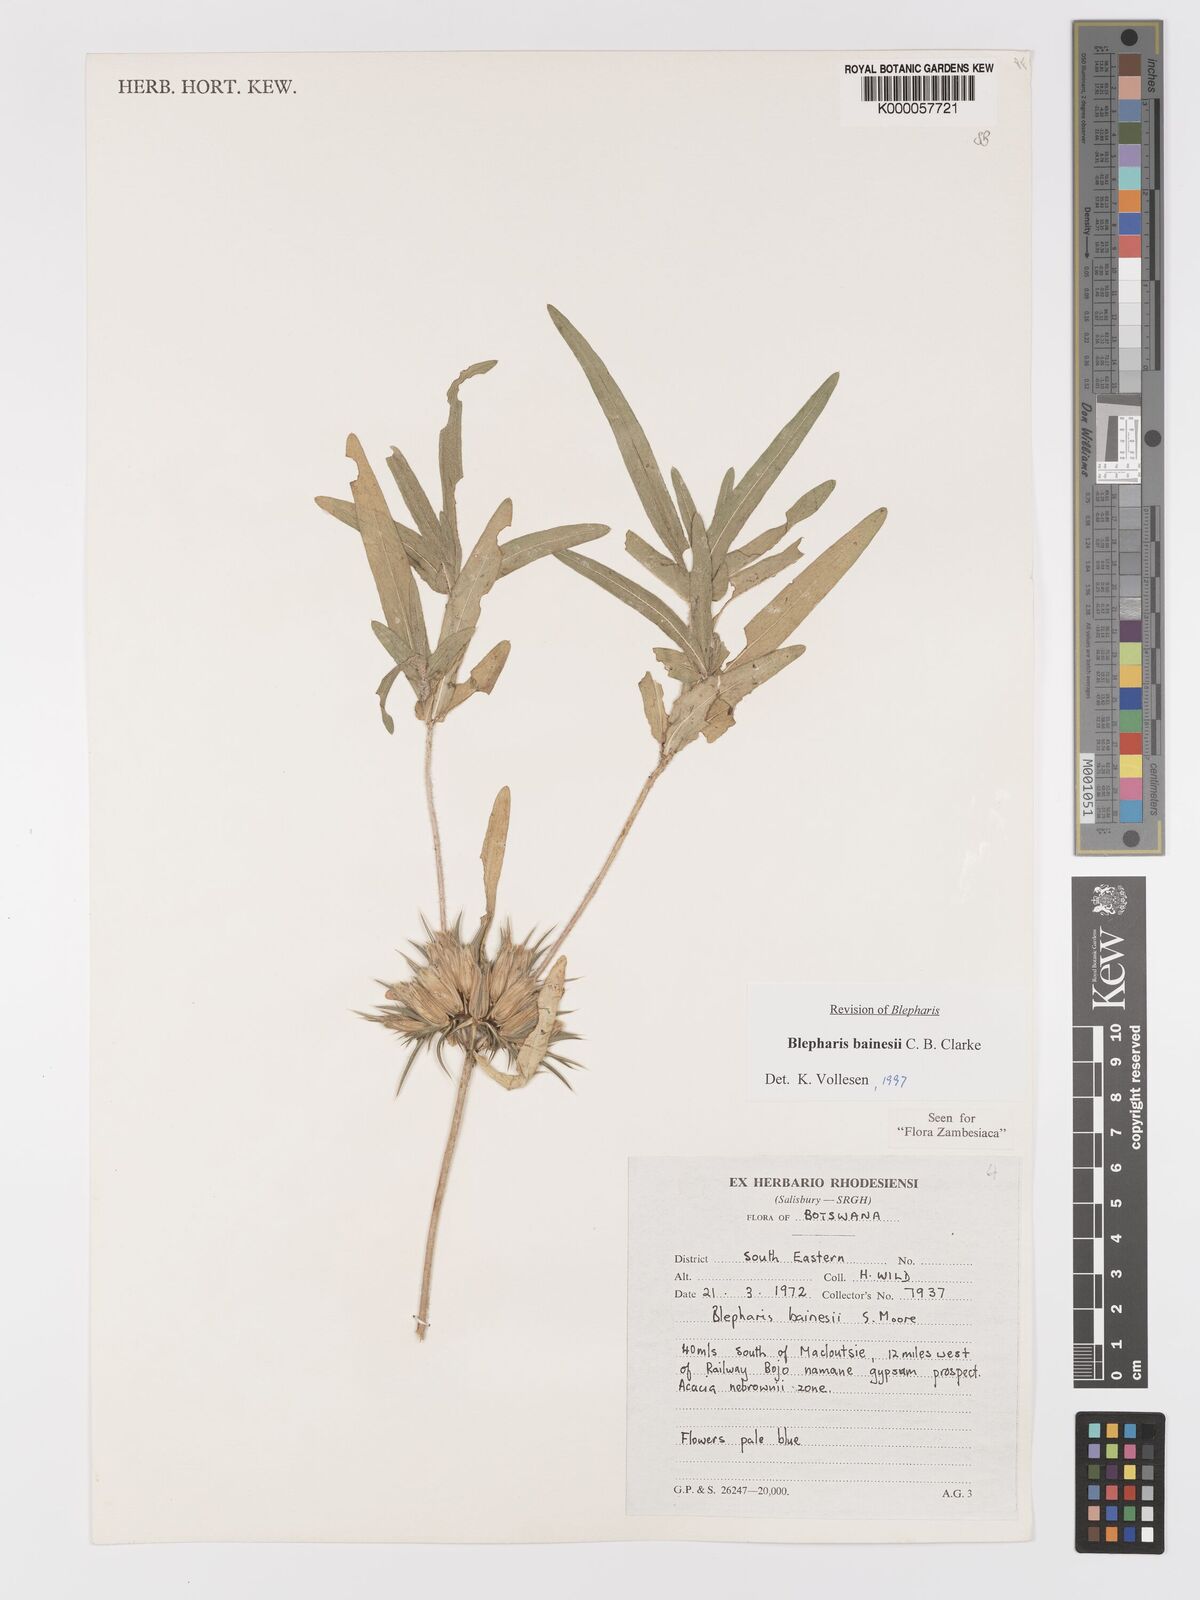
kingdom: Plantae
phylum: Tracheophyta
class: Magnoliopsida
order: Lamiales
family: Acanthaceae
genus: Blepharis
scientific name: Blepharis bainesii
